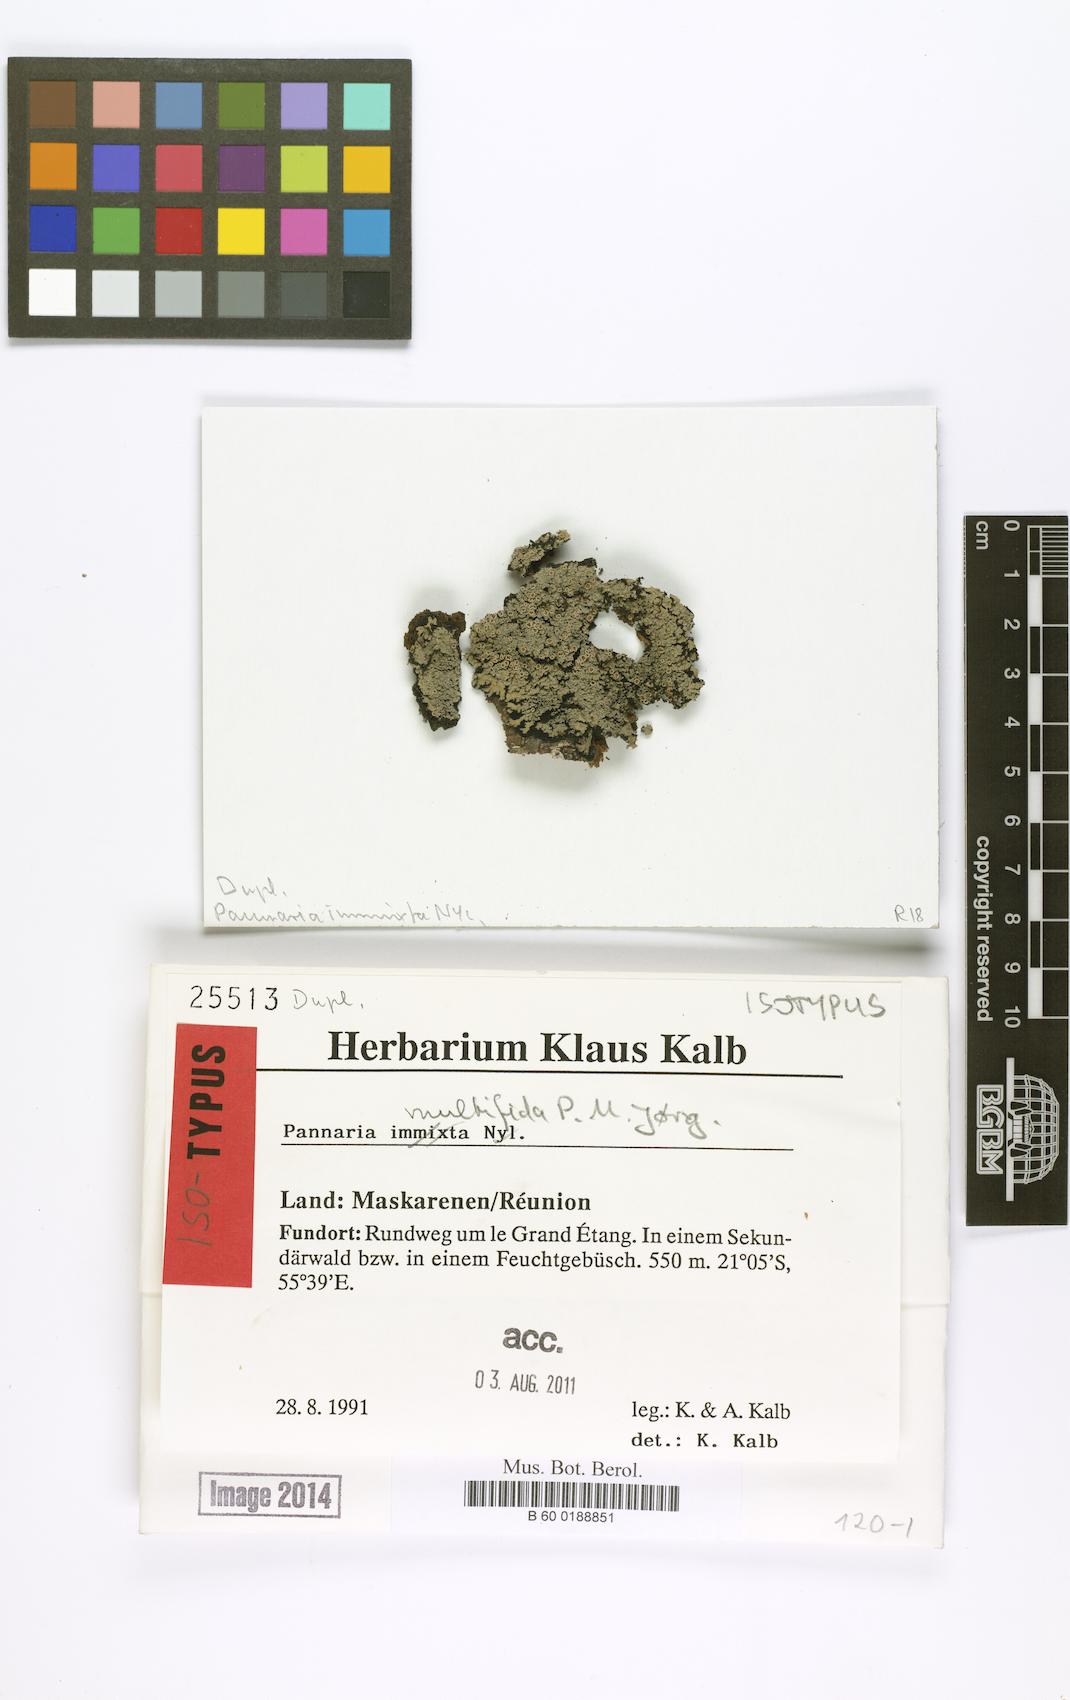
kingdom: Fungi
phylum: Ascomycota
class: Lecanoromycetes
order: Peltigerales
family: Pannariaceae
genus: Pannaria
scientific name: Pannaria multifida
